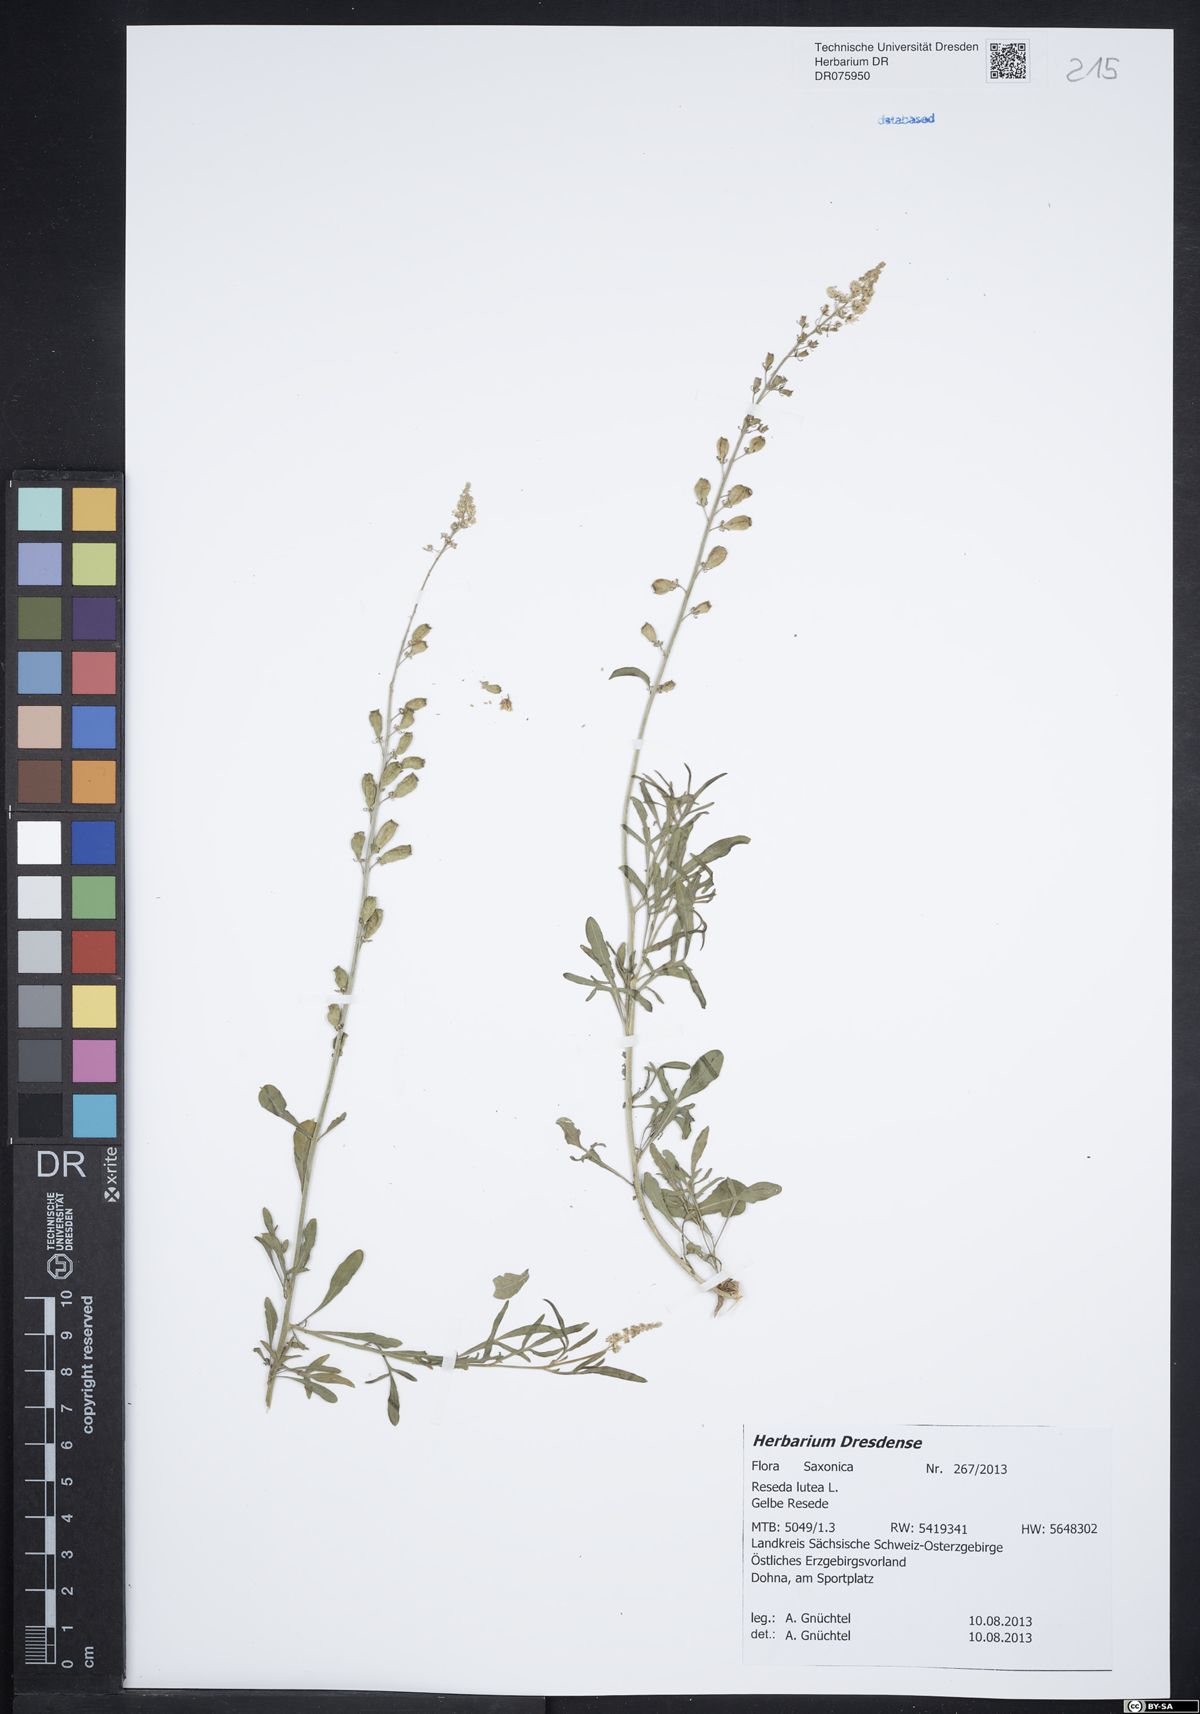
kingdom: Plantae
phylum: Tracheophyta
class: Magnoliopsida
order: Brassicales
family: Resedaceae
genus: Reseda
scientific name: Reseda lutea
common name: Wild mignonette
